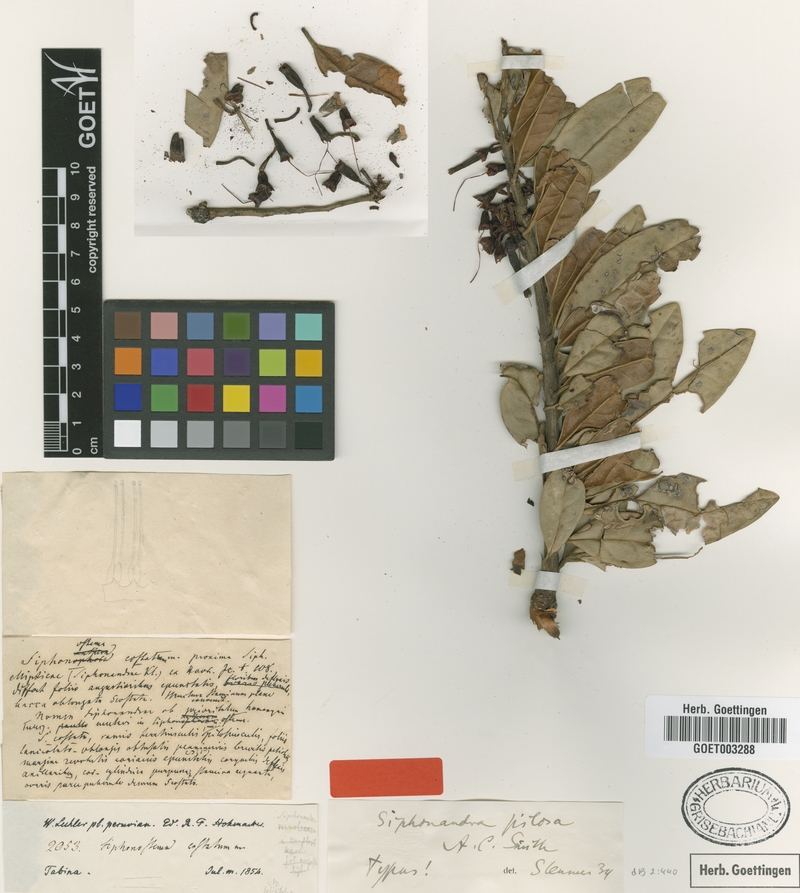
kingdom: Plantae
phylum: Tracheophyta
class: Magnoliopsida
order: Ericales
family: Ericaceae
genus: Siphonandra
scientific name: Siphonandra elliptica
